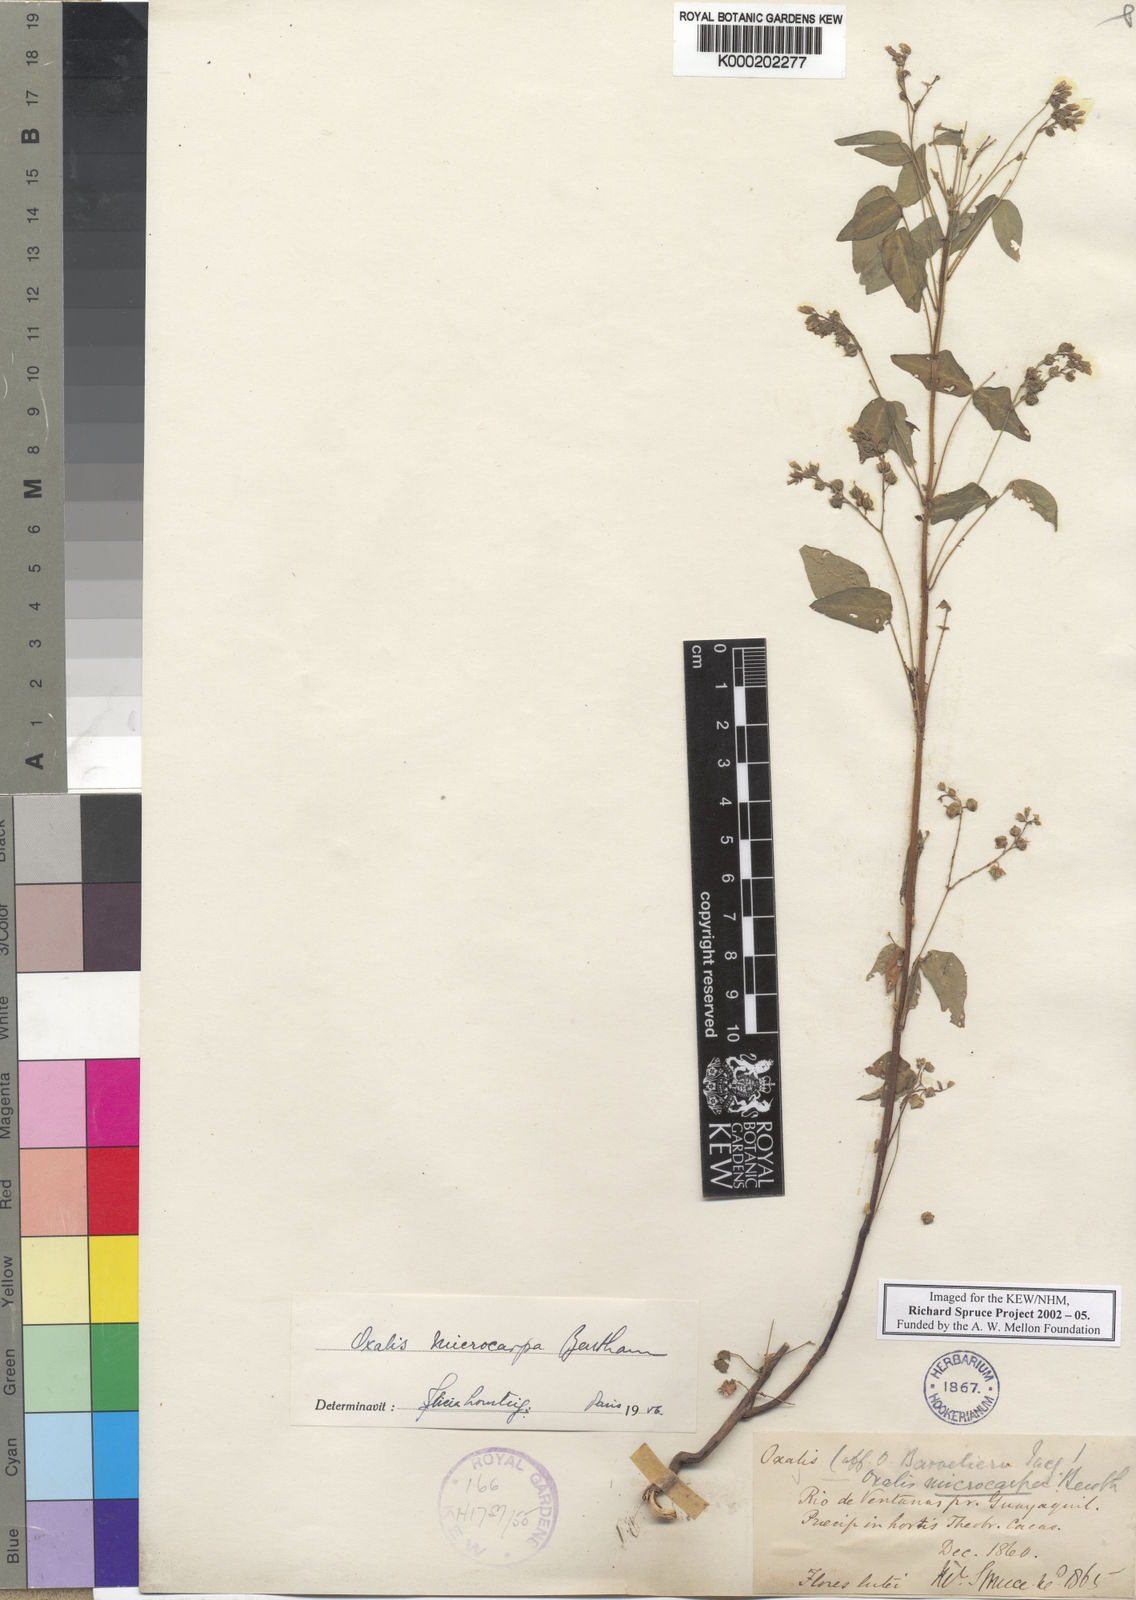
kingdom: Plantae
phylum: Tracheophyta
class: Magnoliopsida
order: Oxalidales
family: Oxalidaceae
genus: Oxalis
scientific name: Oxalis microcarpa
